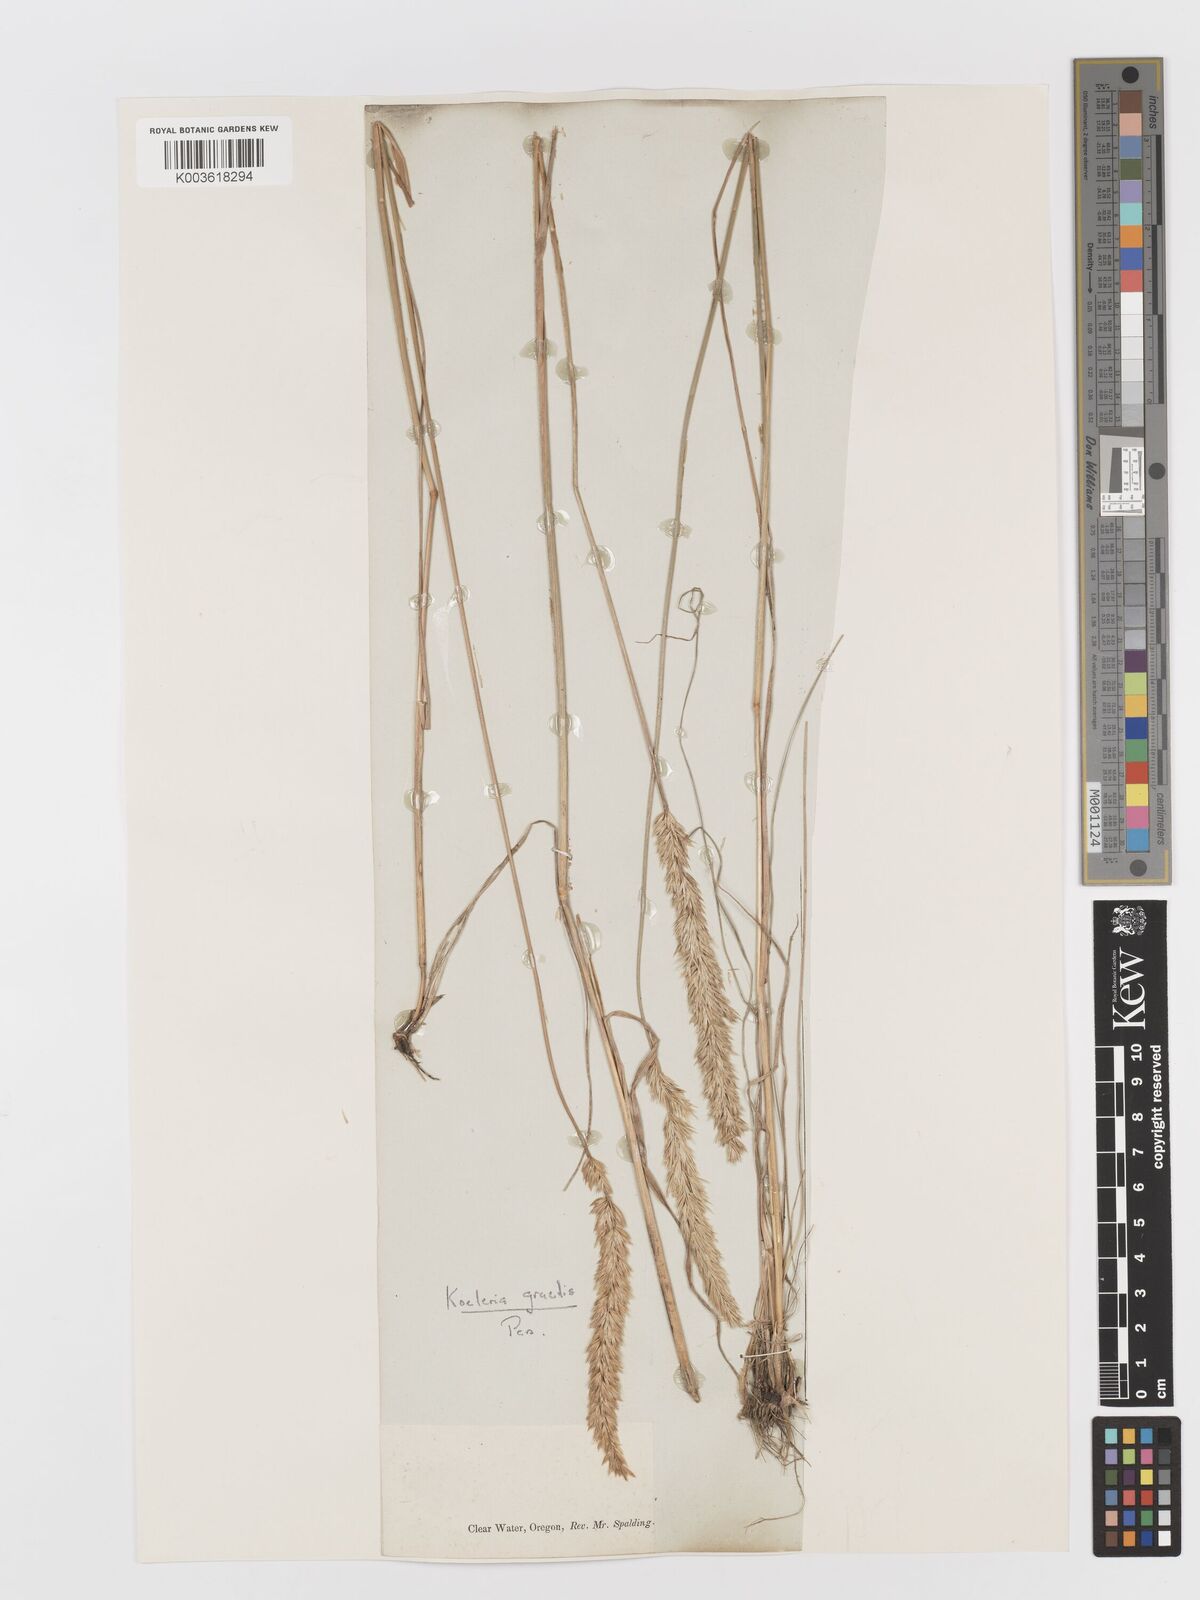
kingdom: Plantae
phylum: Tracheophyta
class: Liliopsida
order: Poales
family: Poaceae
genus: Koeleria
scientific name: Koeleria macrantha
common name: Crested hair-grass
